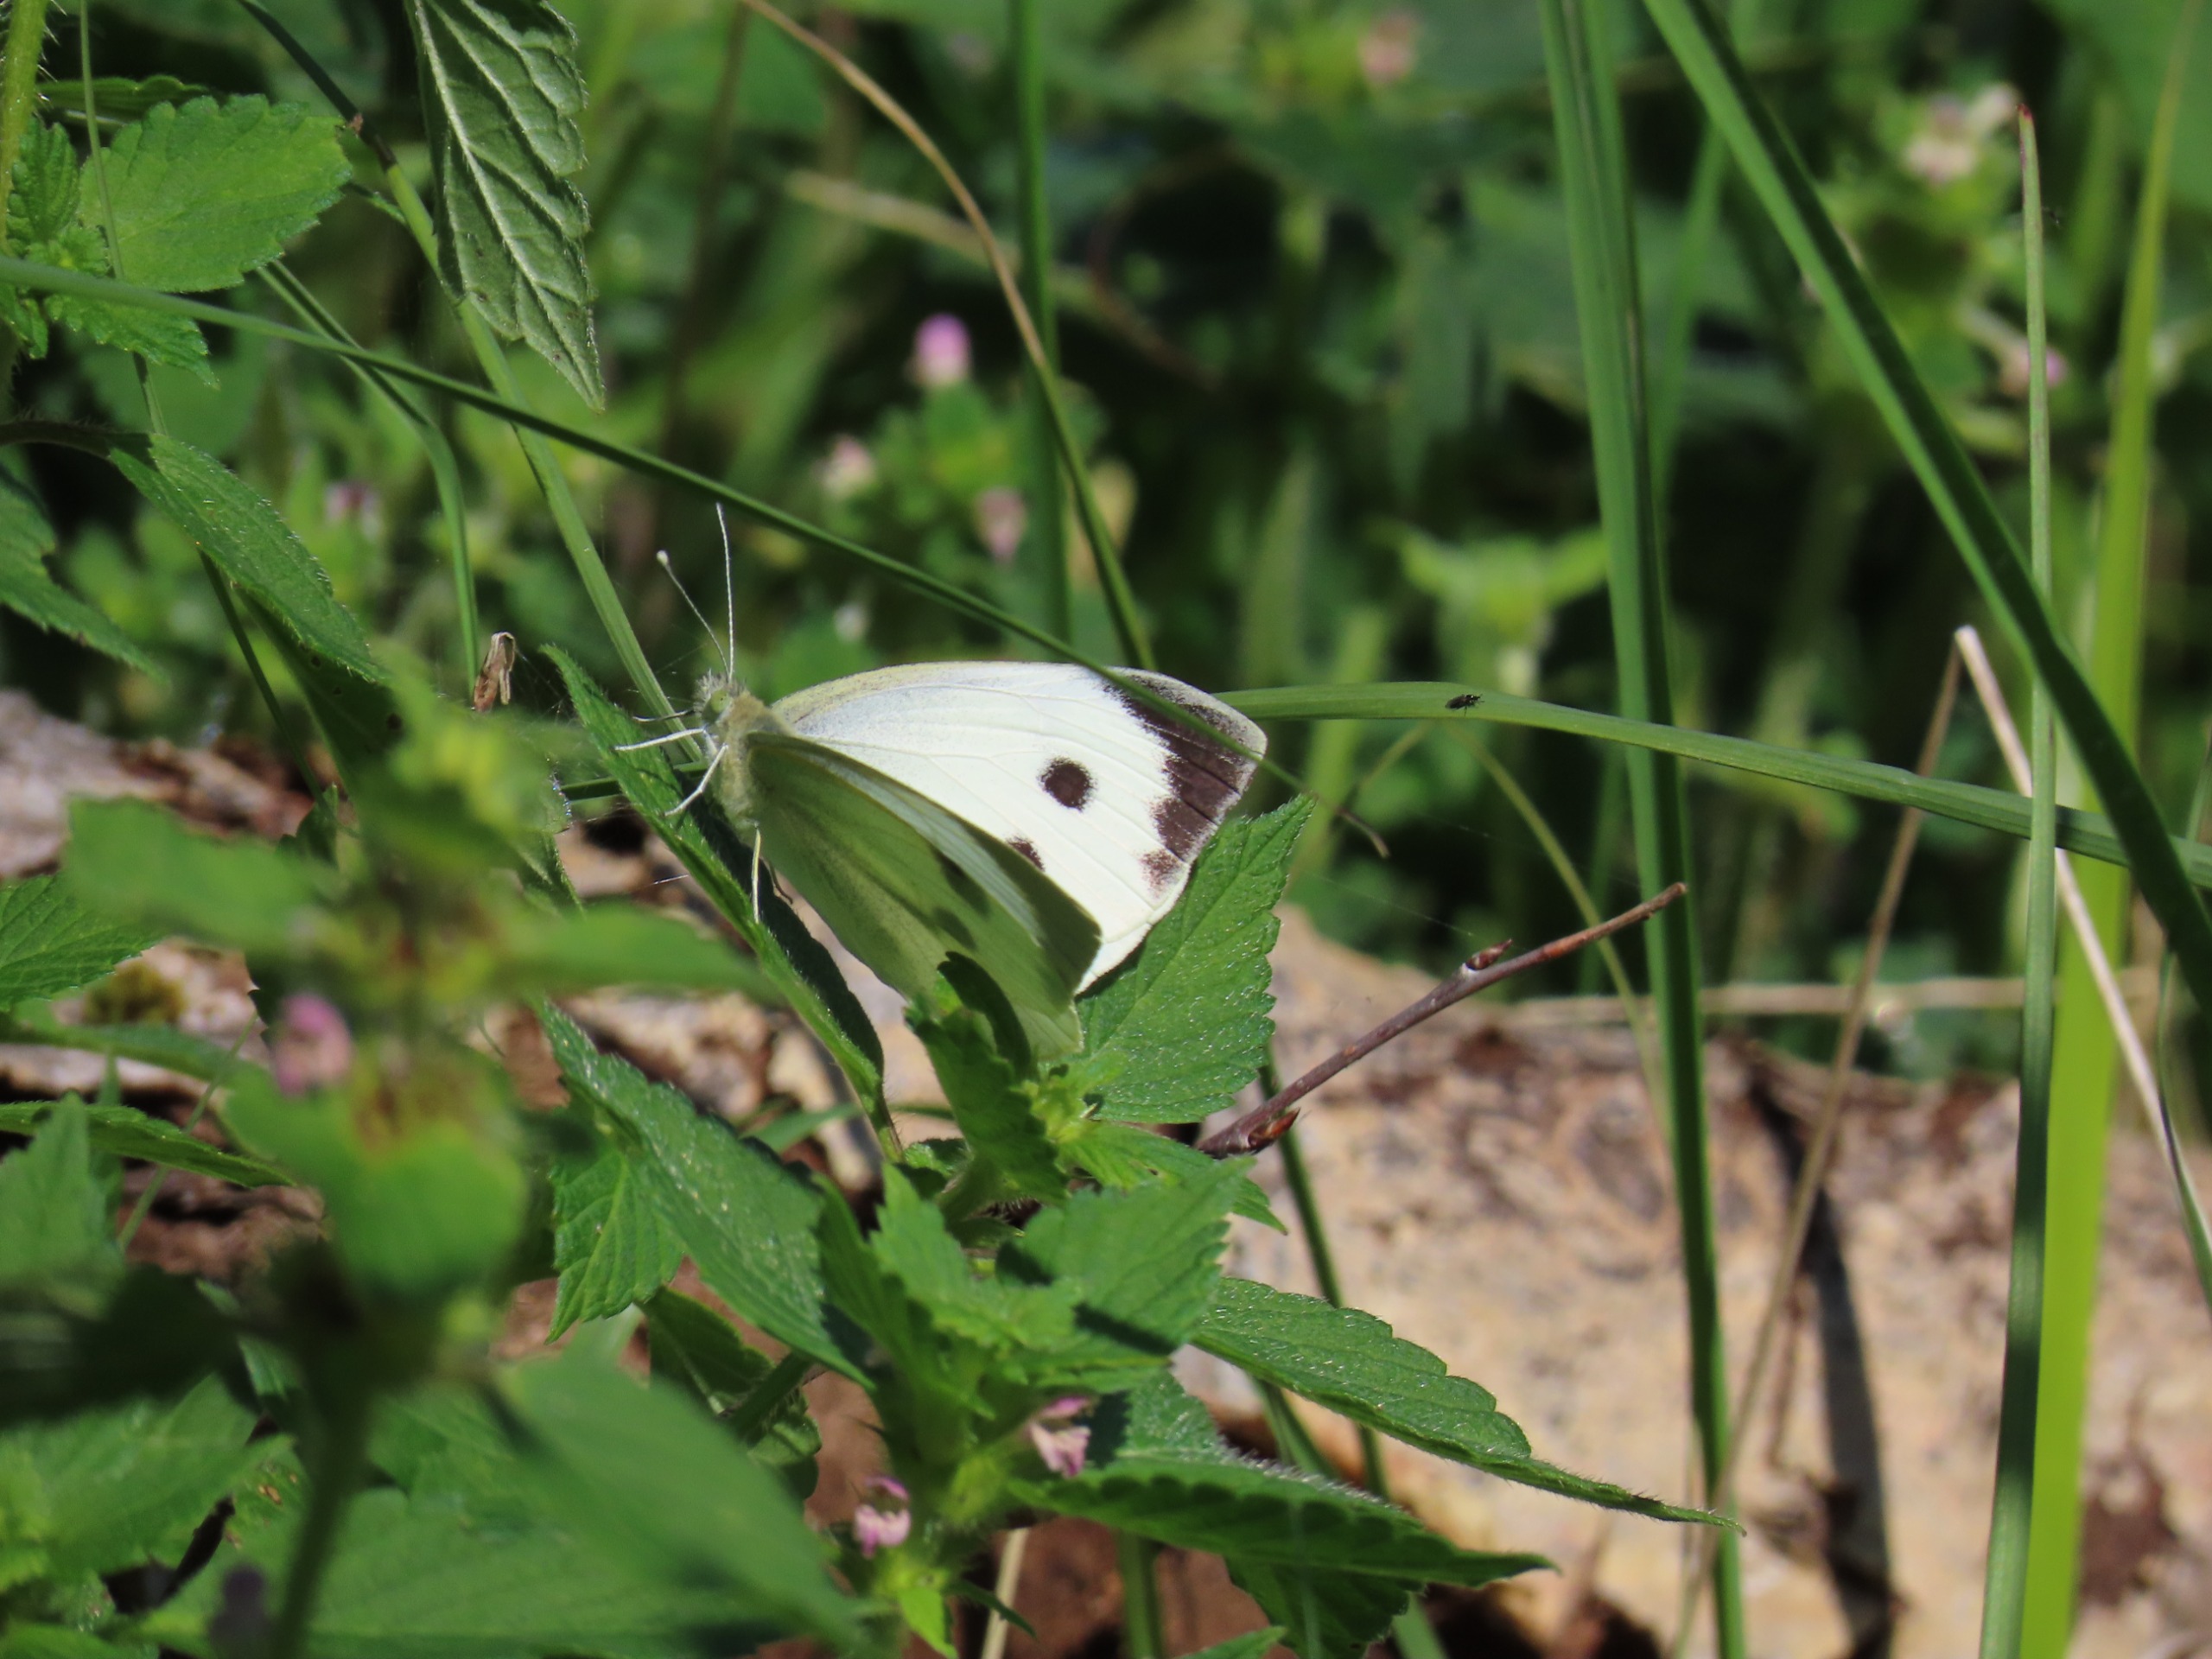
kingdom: Animalia
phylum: Arthropoda
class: Insecta
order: Lepidoptera
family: Pieridae
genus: Pieris
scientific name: Pieris brassicae
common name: Stor kålsommerfugl
